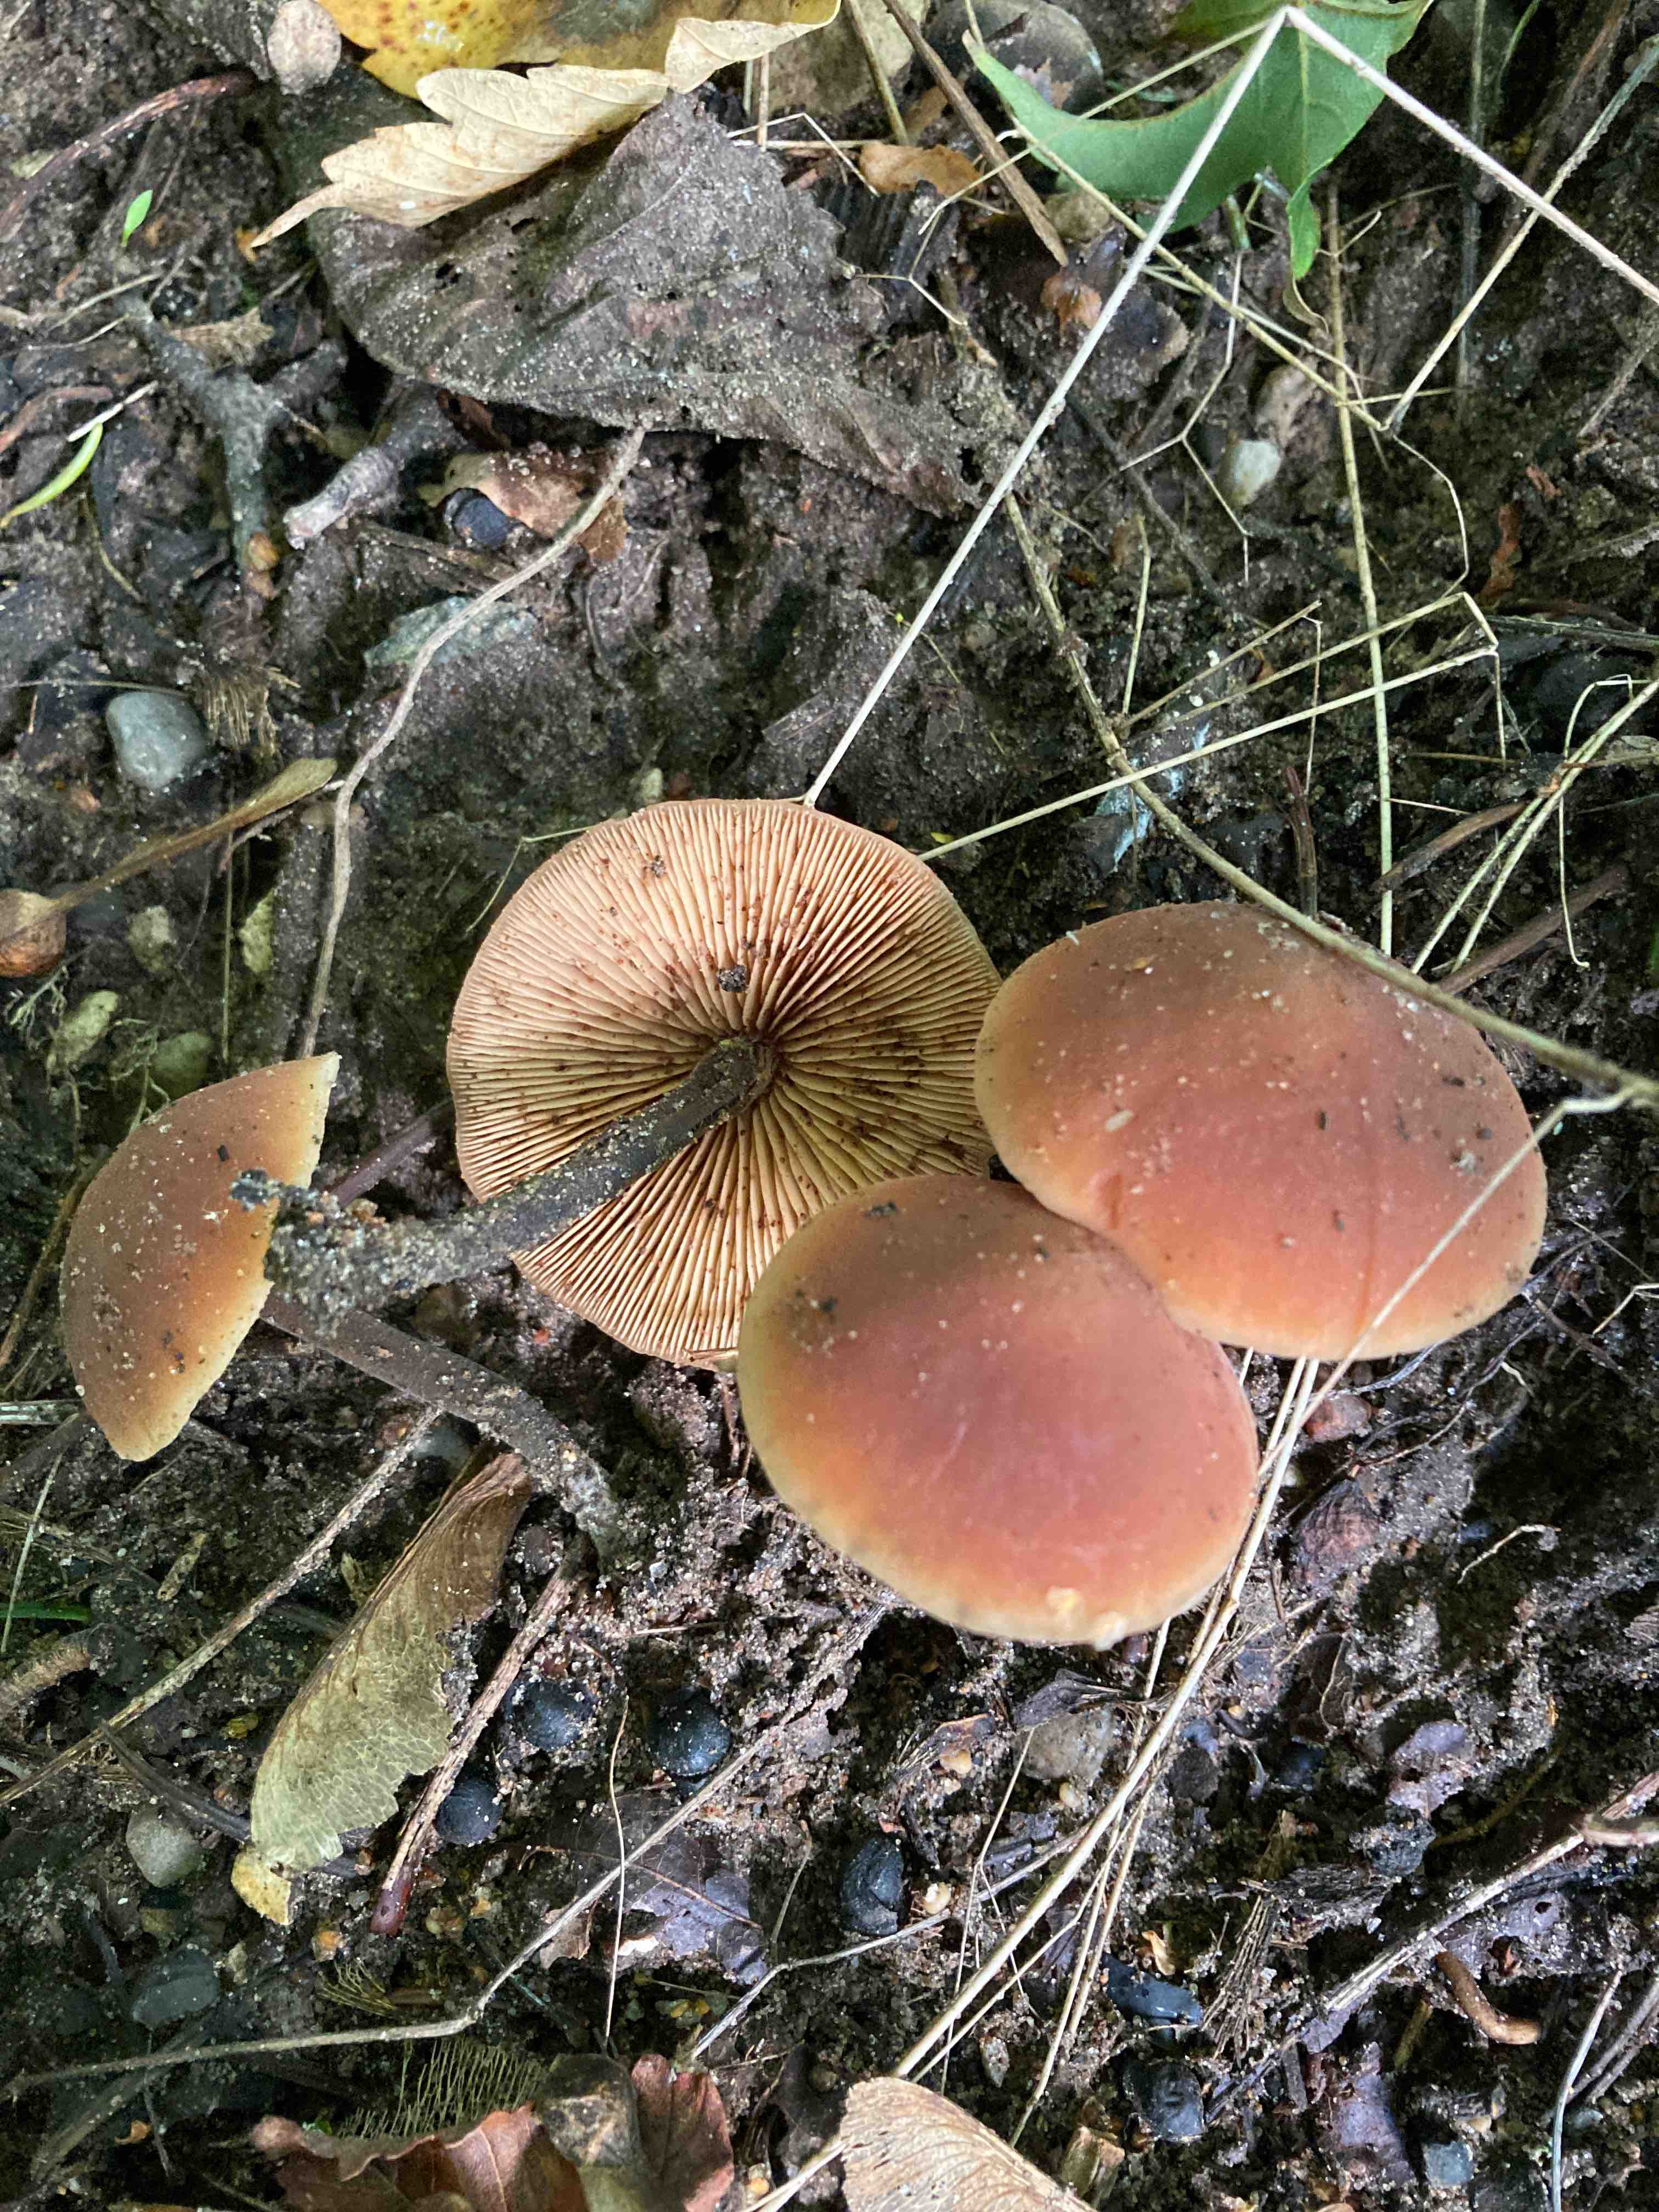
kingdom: Fungi
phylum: Basidiomycota
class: Agaricomycetes
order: Agaricales
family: Macrocystidiaceae
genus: Macrocystidia
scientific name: Macrocystidia cucumis
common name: agurkehat
